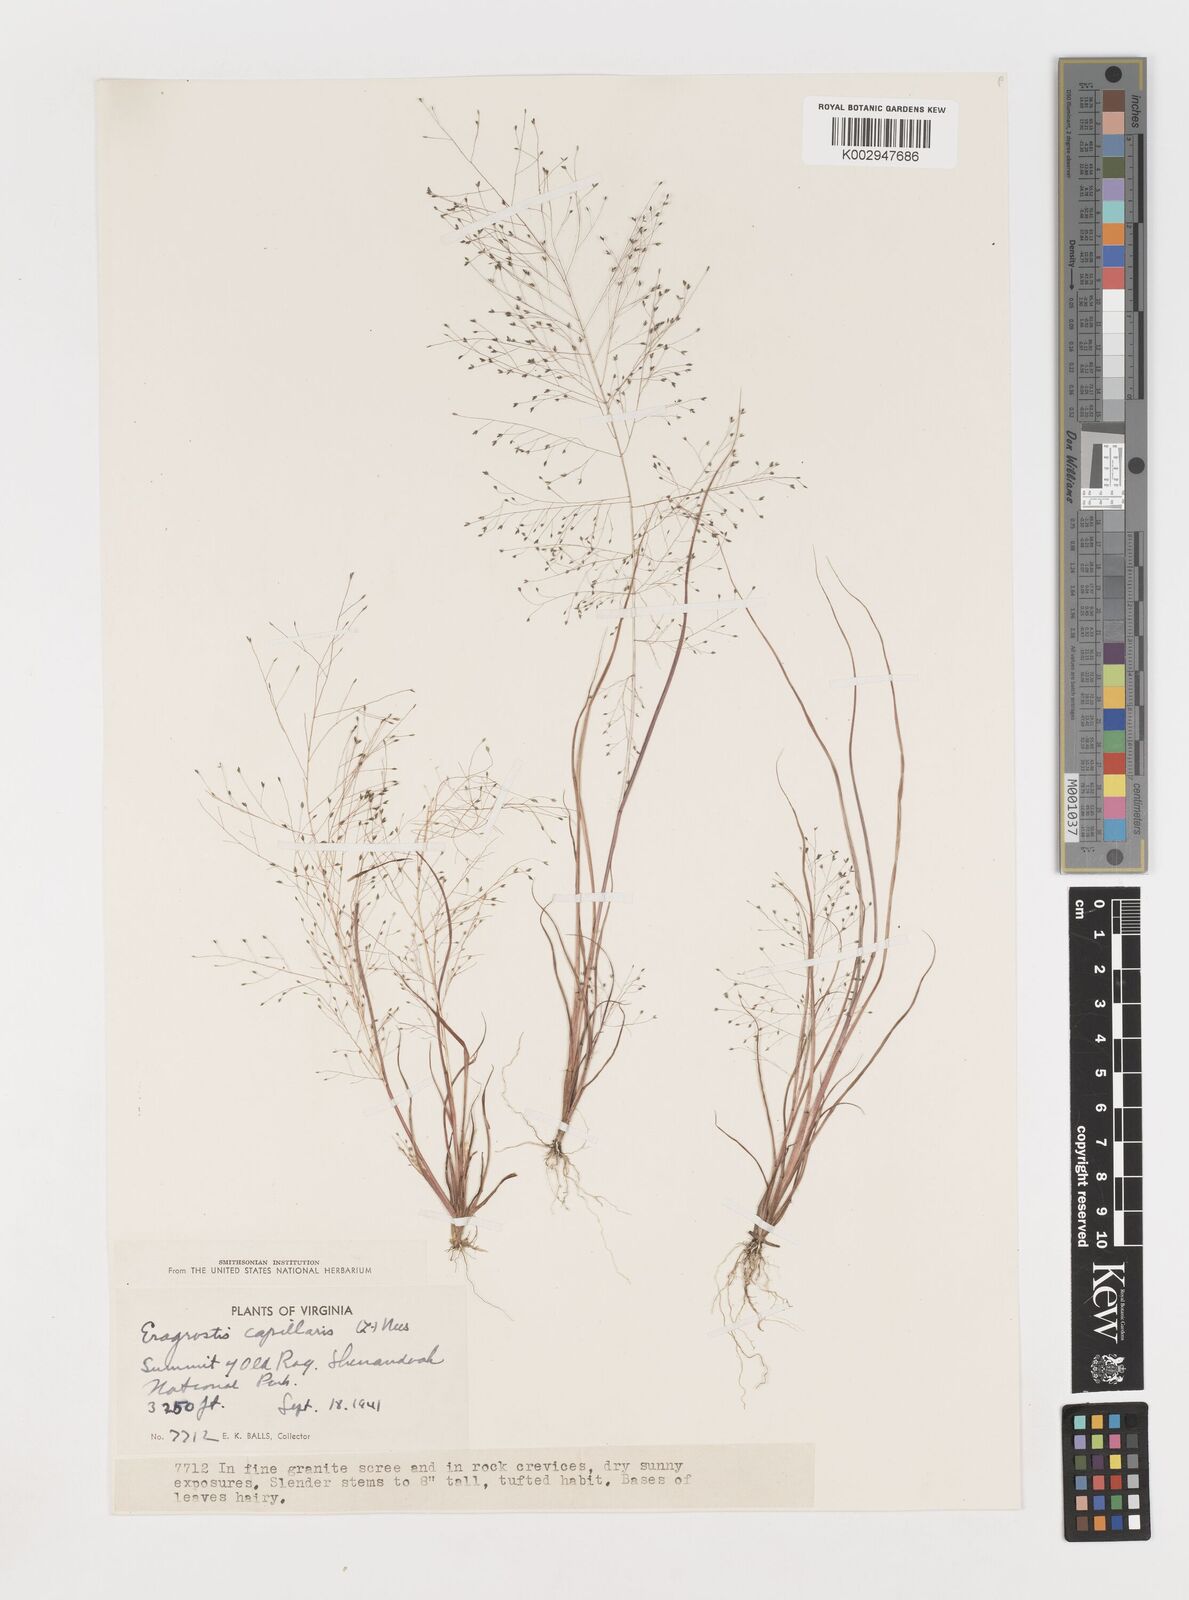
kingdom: Plantae
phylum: Tracheophyta
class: Liliopsida
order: Poales
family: Poaceae
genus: Eragrostis
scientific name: Eragrostis capillaris
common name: Hair-like lovegrass
